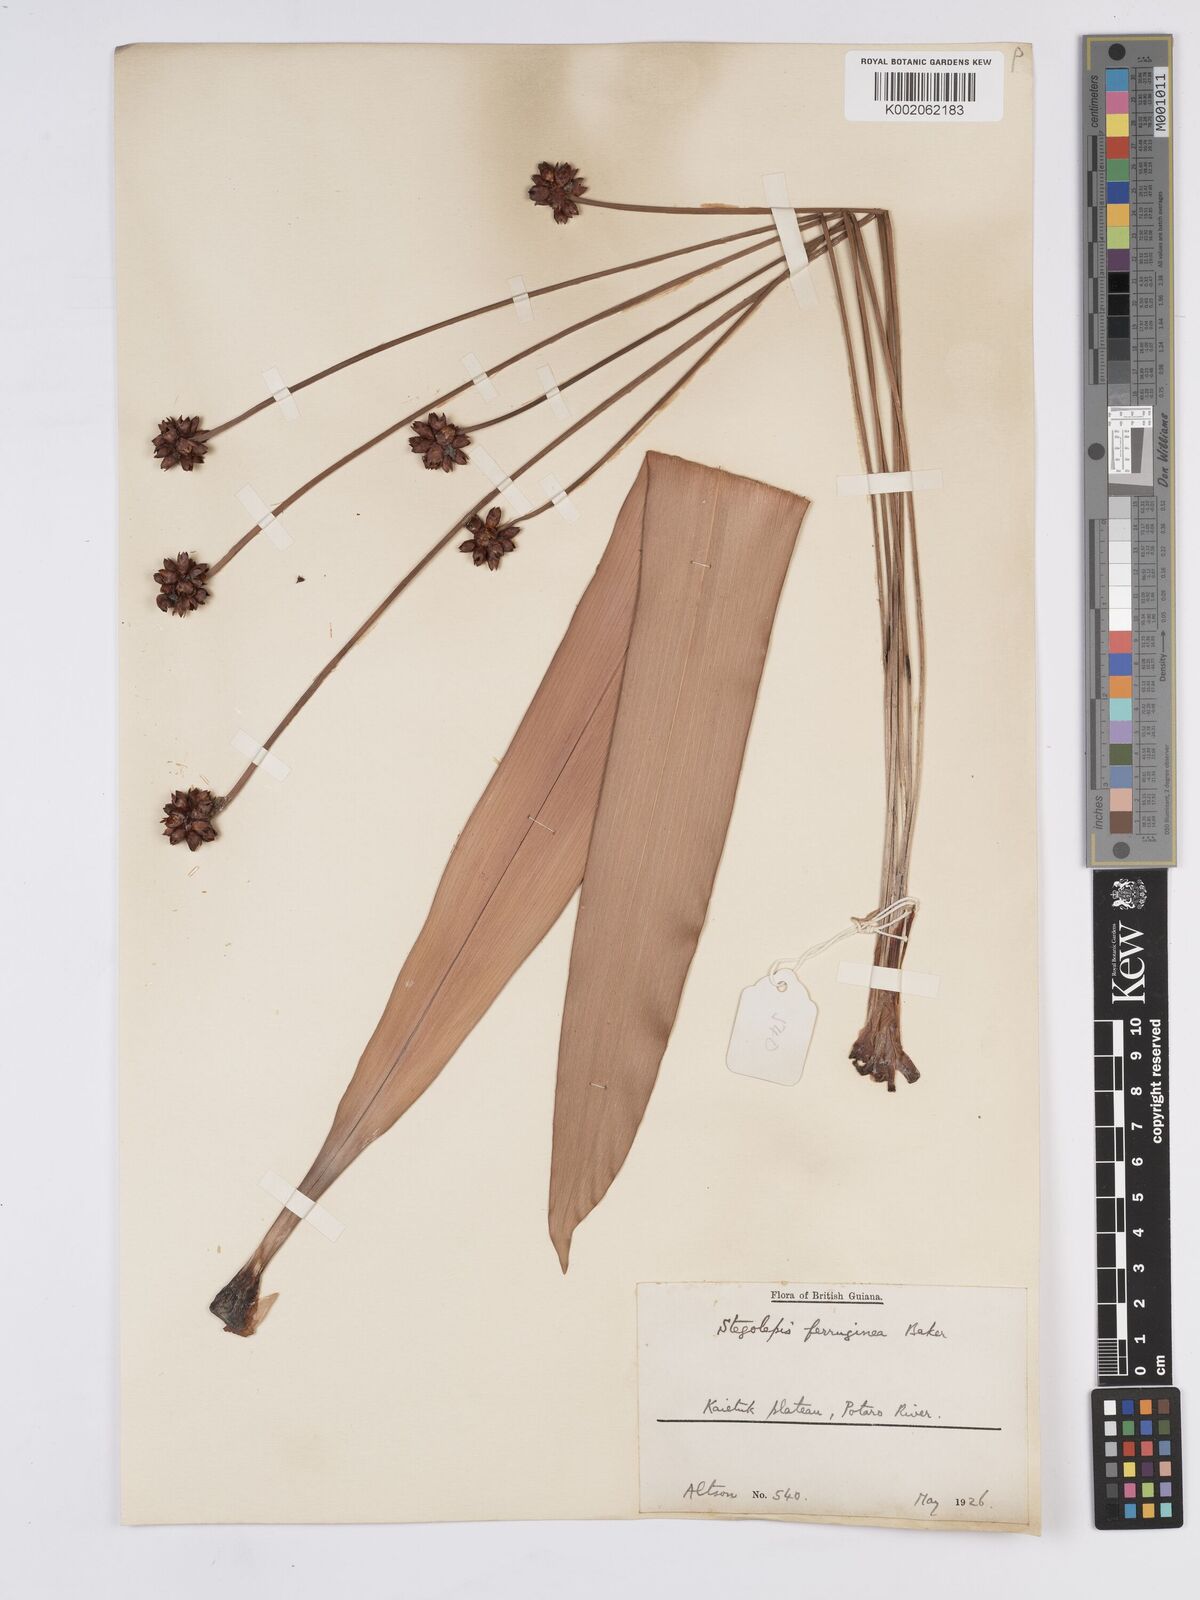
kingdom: Plantae
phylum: Tracheophyta
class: Liliopsida
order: Poales
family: Rapateaceae
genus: Stegolepis
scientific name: Stegolepis ferruginea
